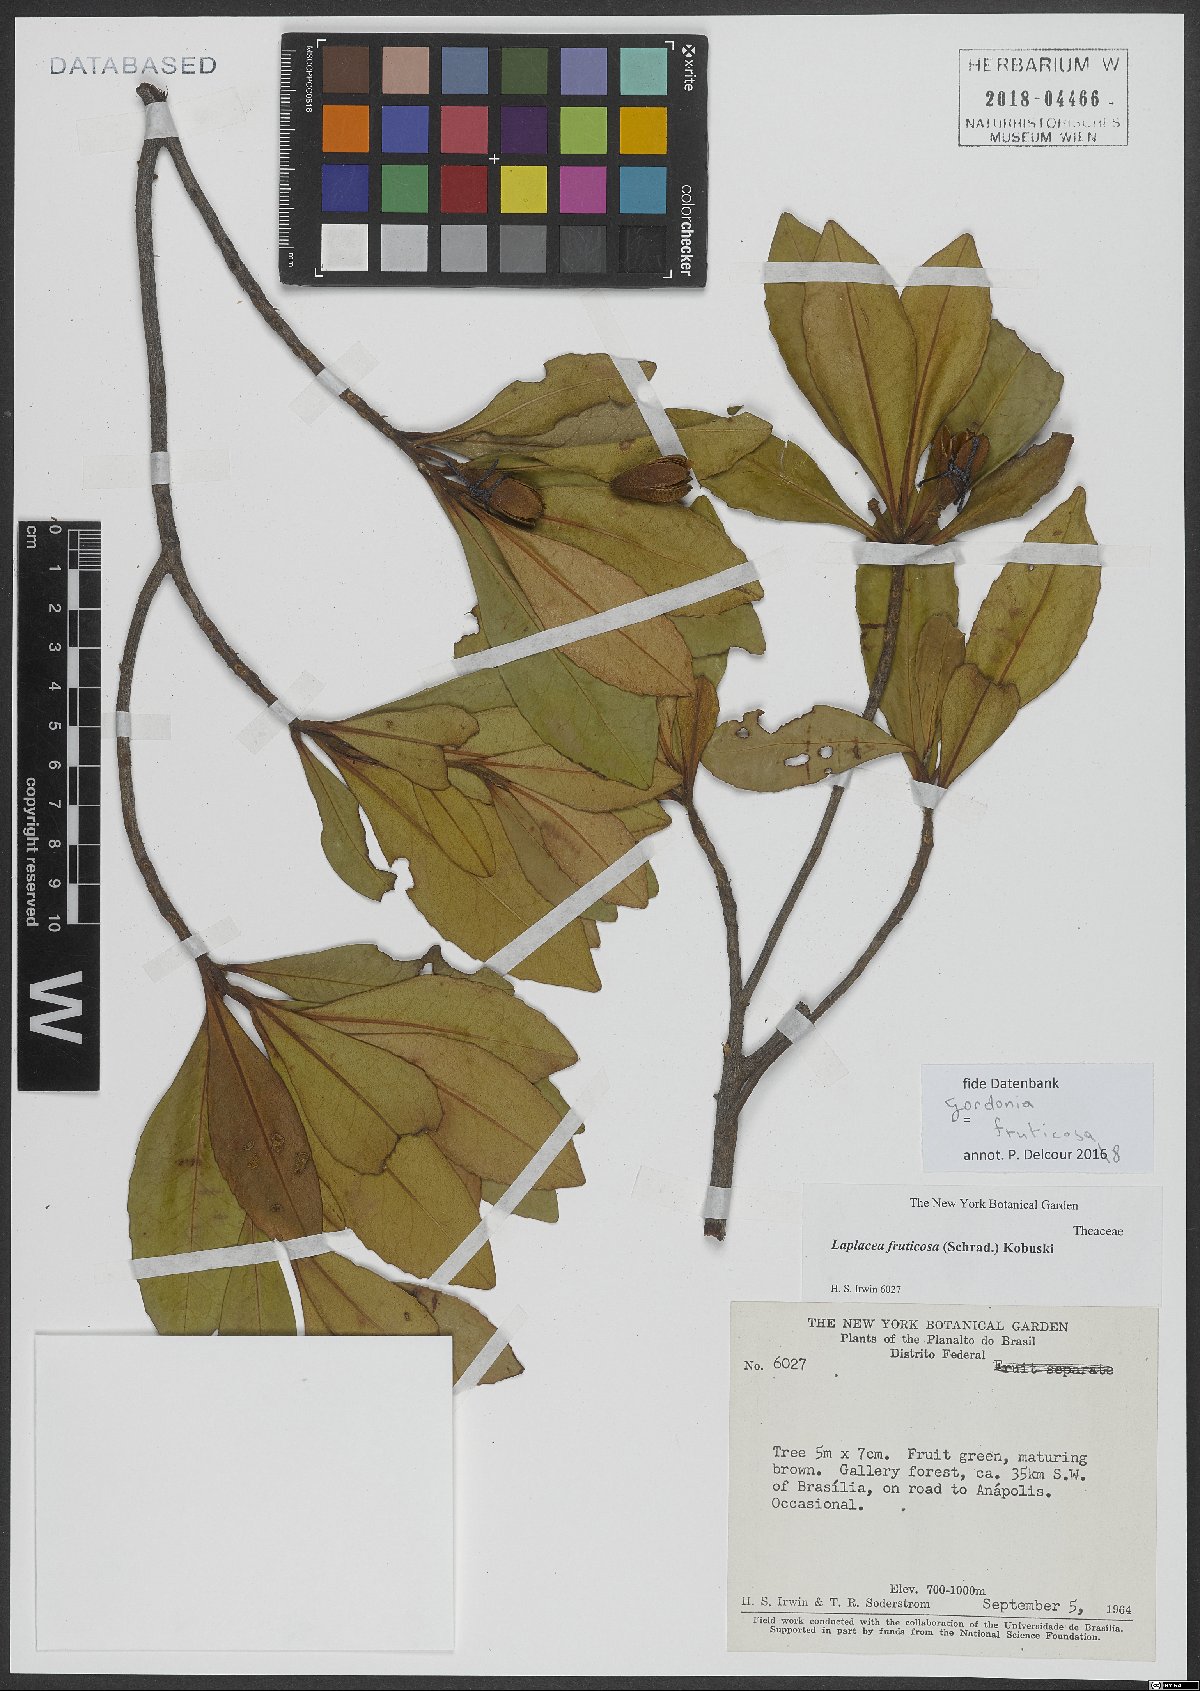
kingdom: Plantae
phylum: Tracheophyta
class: Magnoliopsida
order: Ericales
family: Theaceae
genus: Gordonia
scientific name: Gordonia fruticosa
